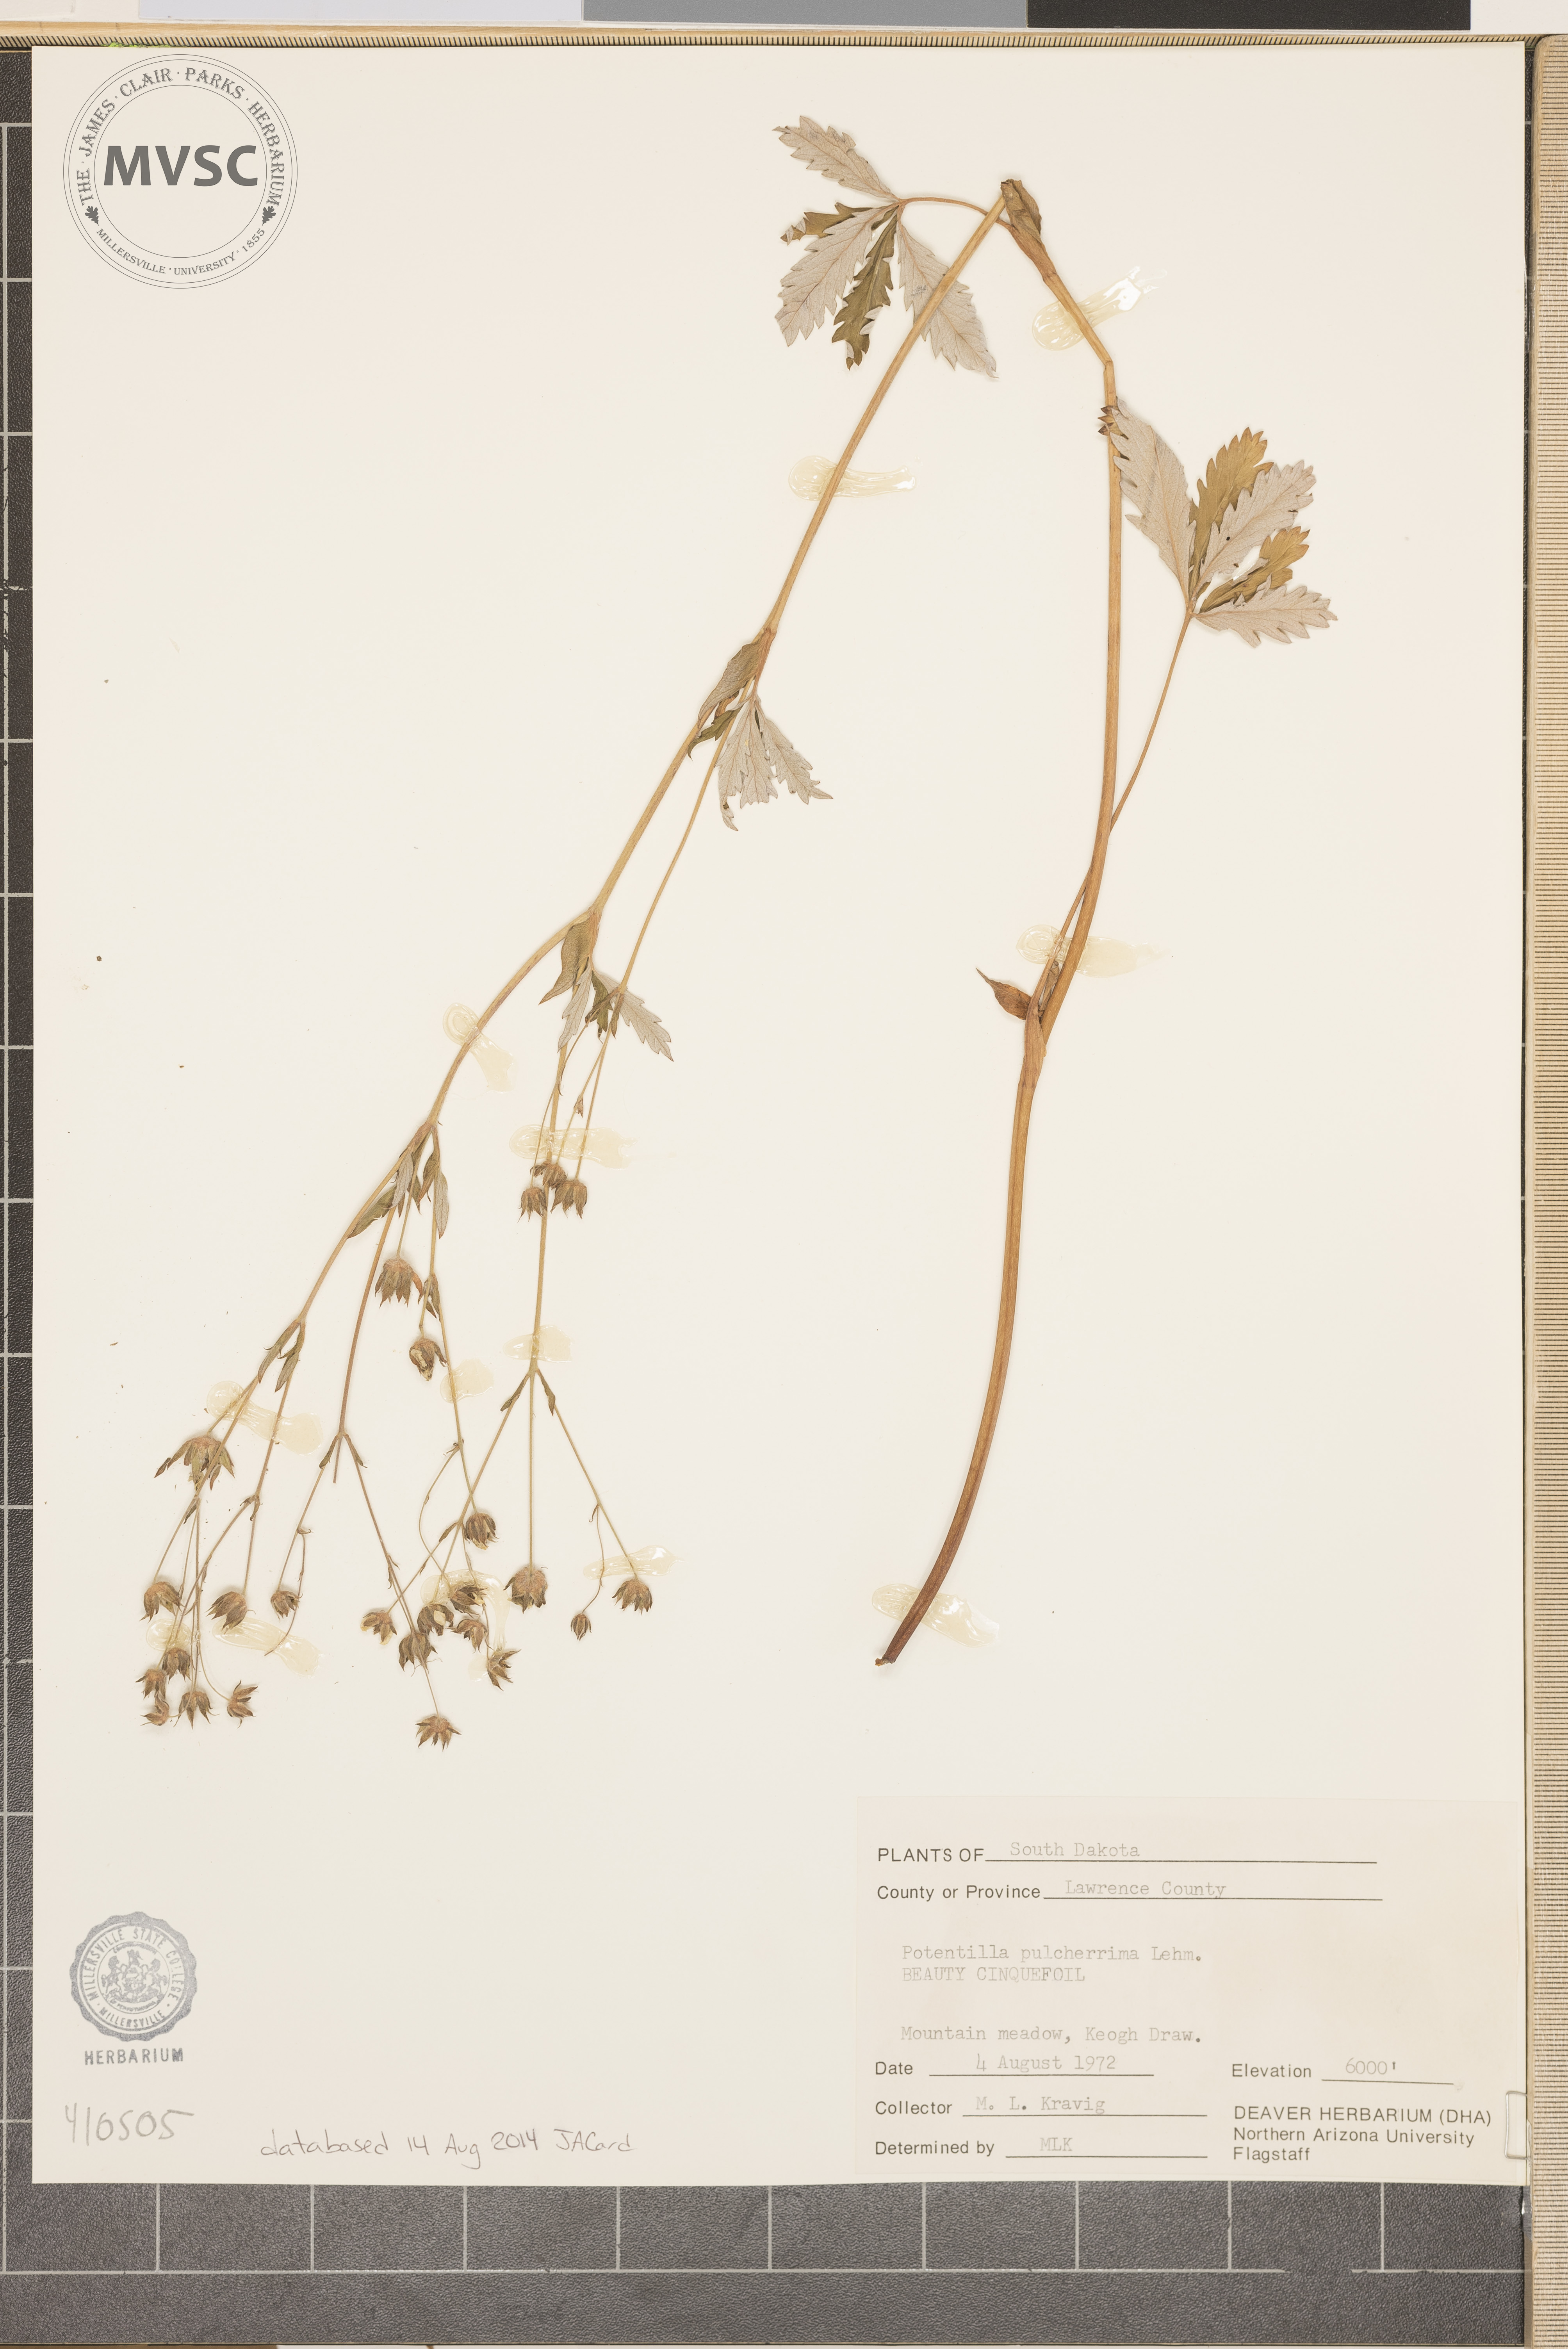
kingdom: Plantae
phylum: Tracheophyta
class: Magnoliopsida
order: Rosales
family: Rosaceae
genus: Potentilla
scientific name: Potentilla pulcherrima
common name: Beautiful cinquefoil
